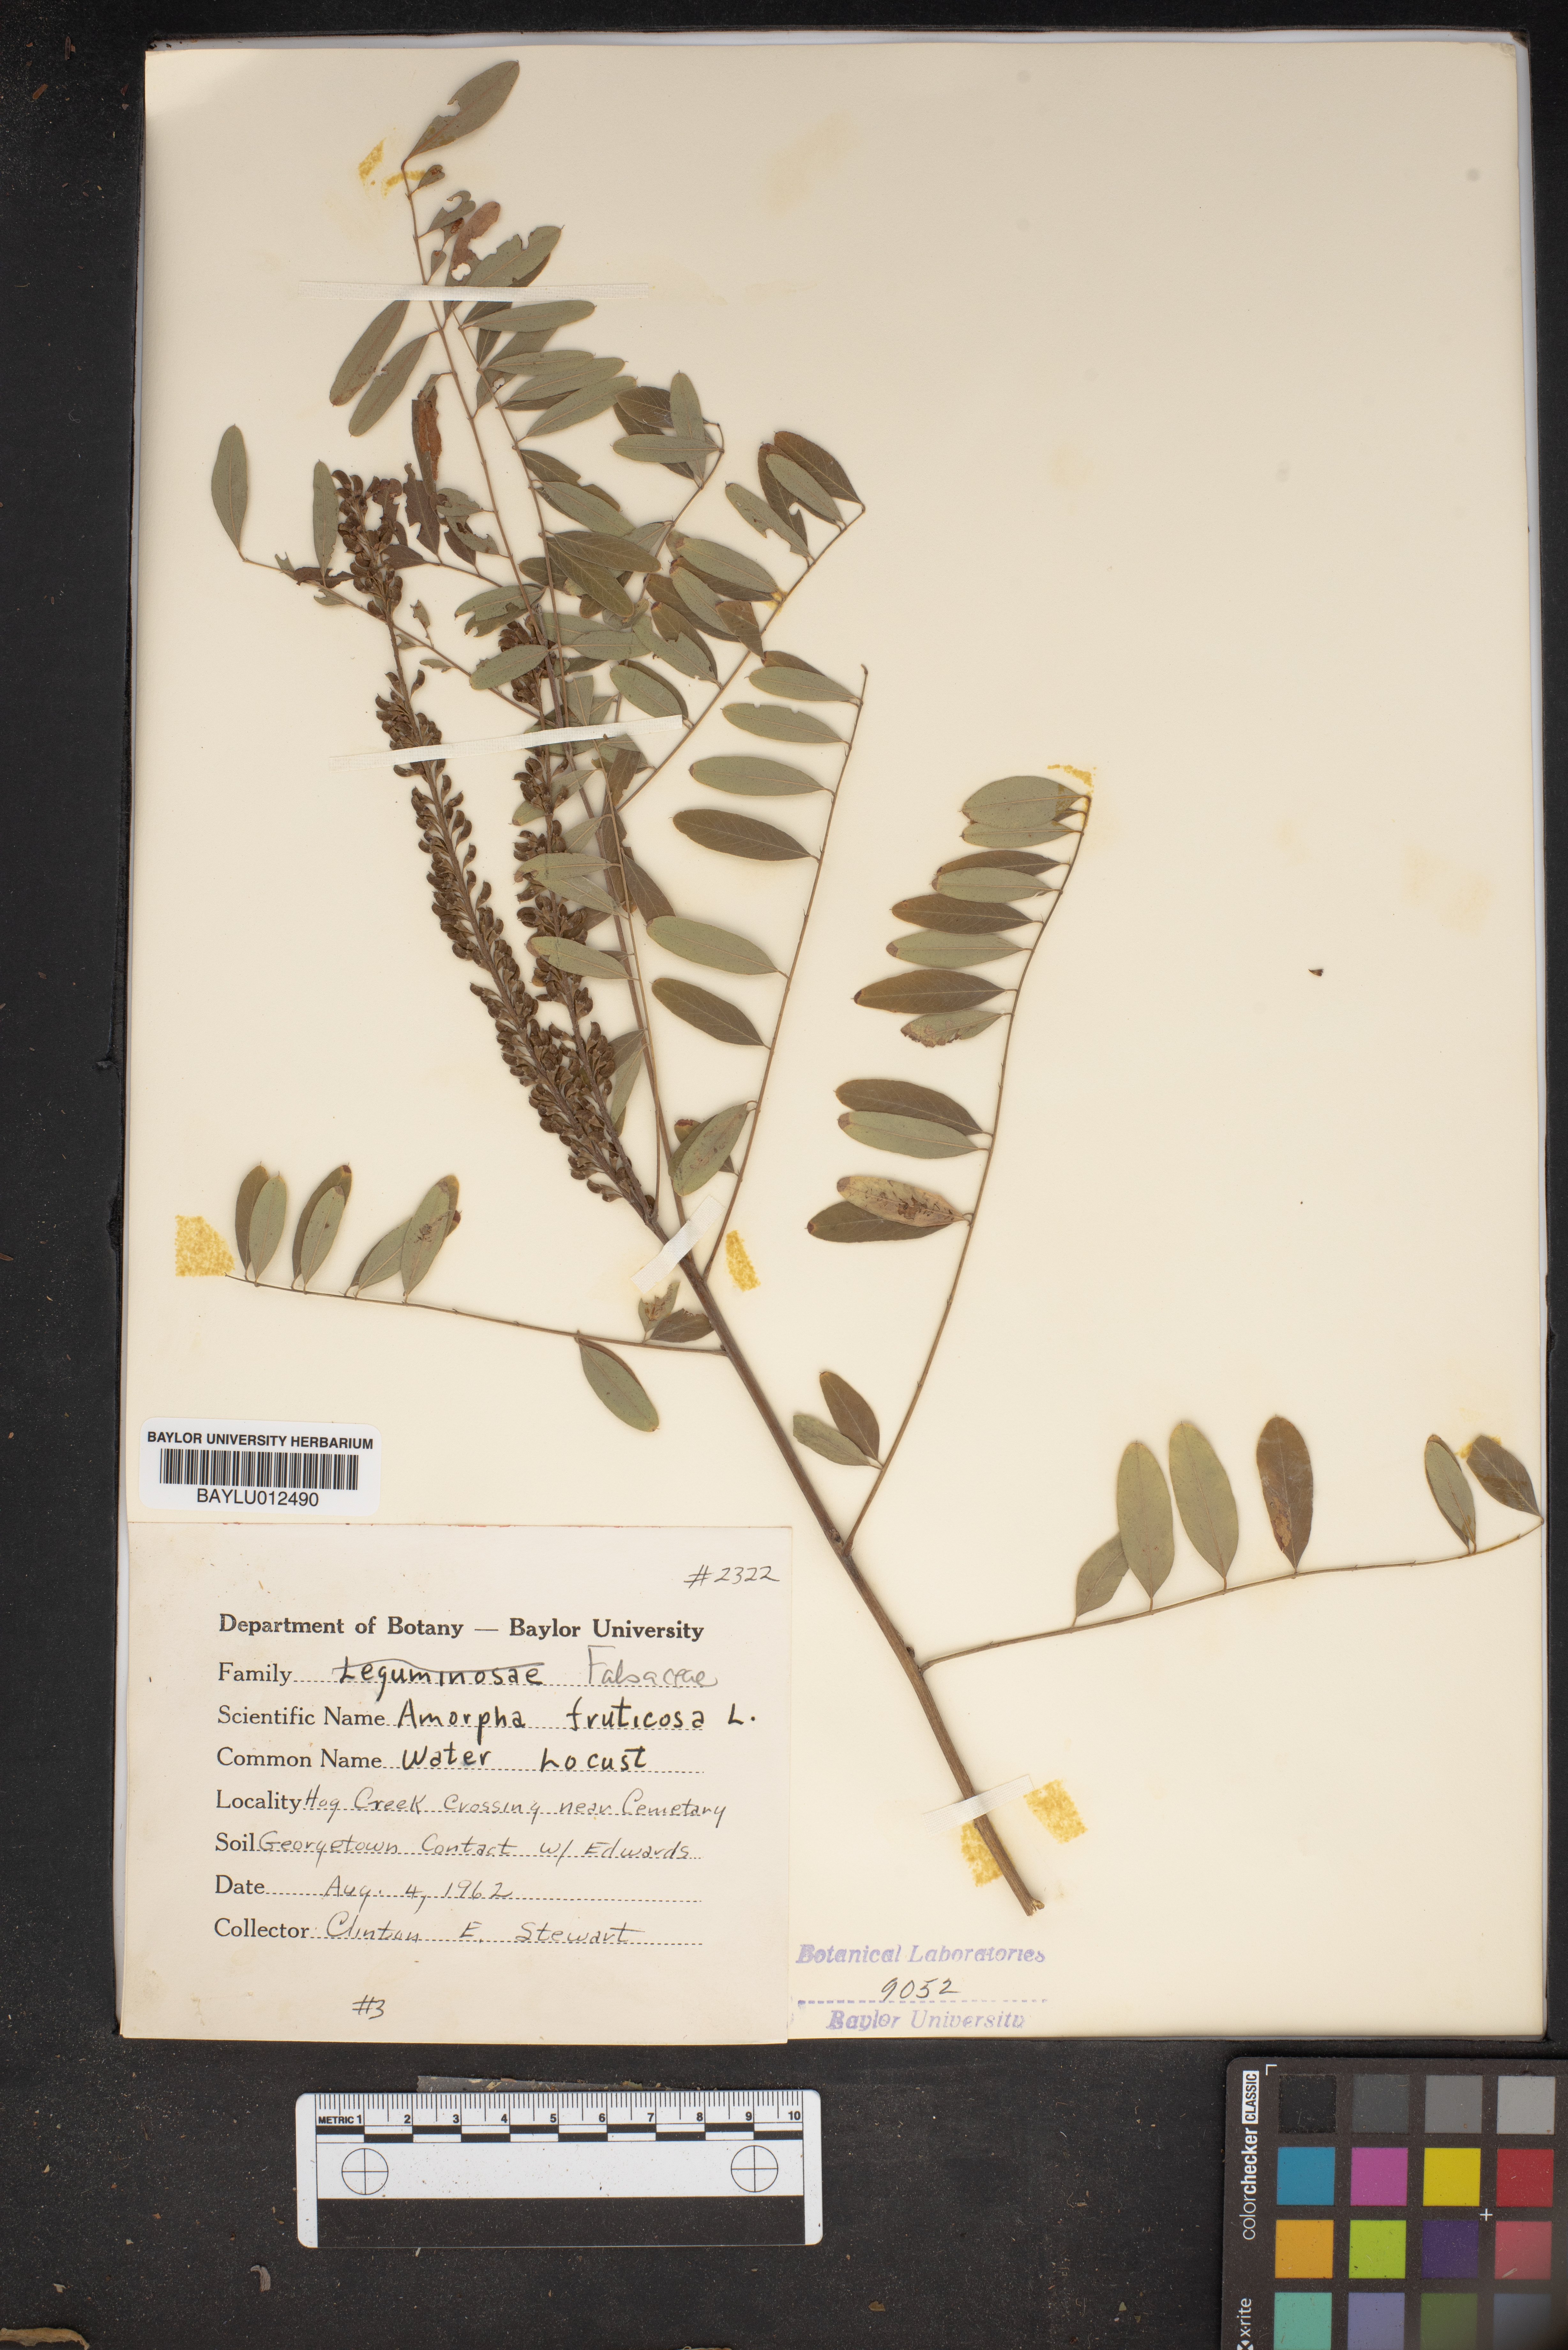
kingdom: Plantae
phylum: Tracheophyta
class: Magnoliopsida
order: Fabales
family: Fabaceae
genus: Amorpha
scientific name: Amorpha fruticosa
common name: False indigo
